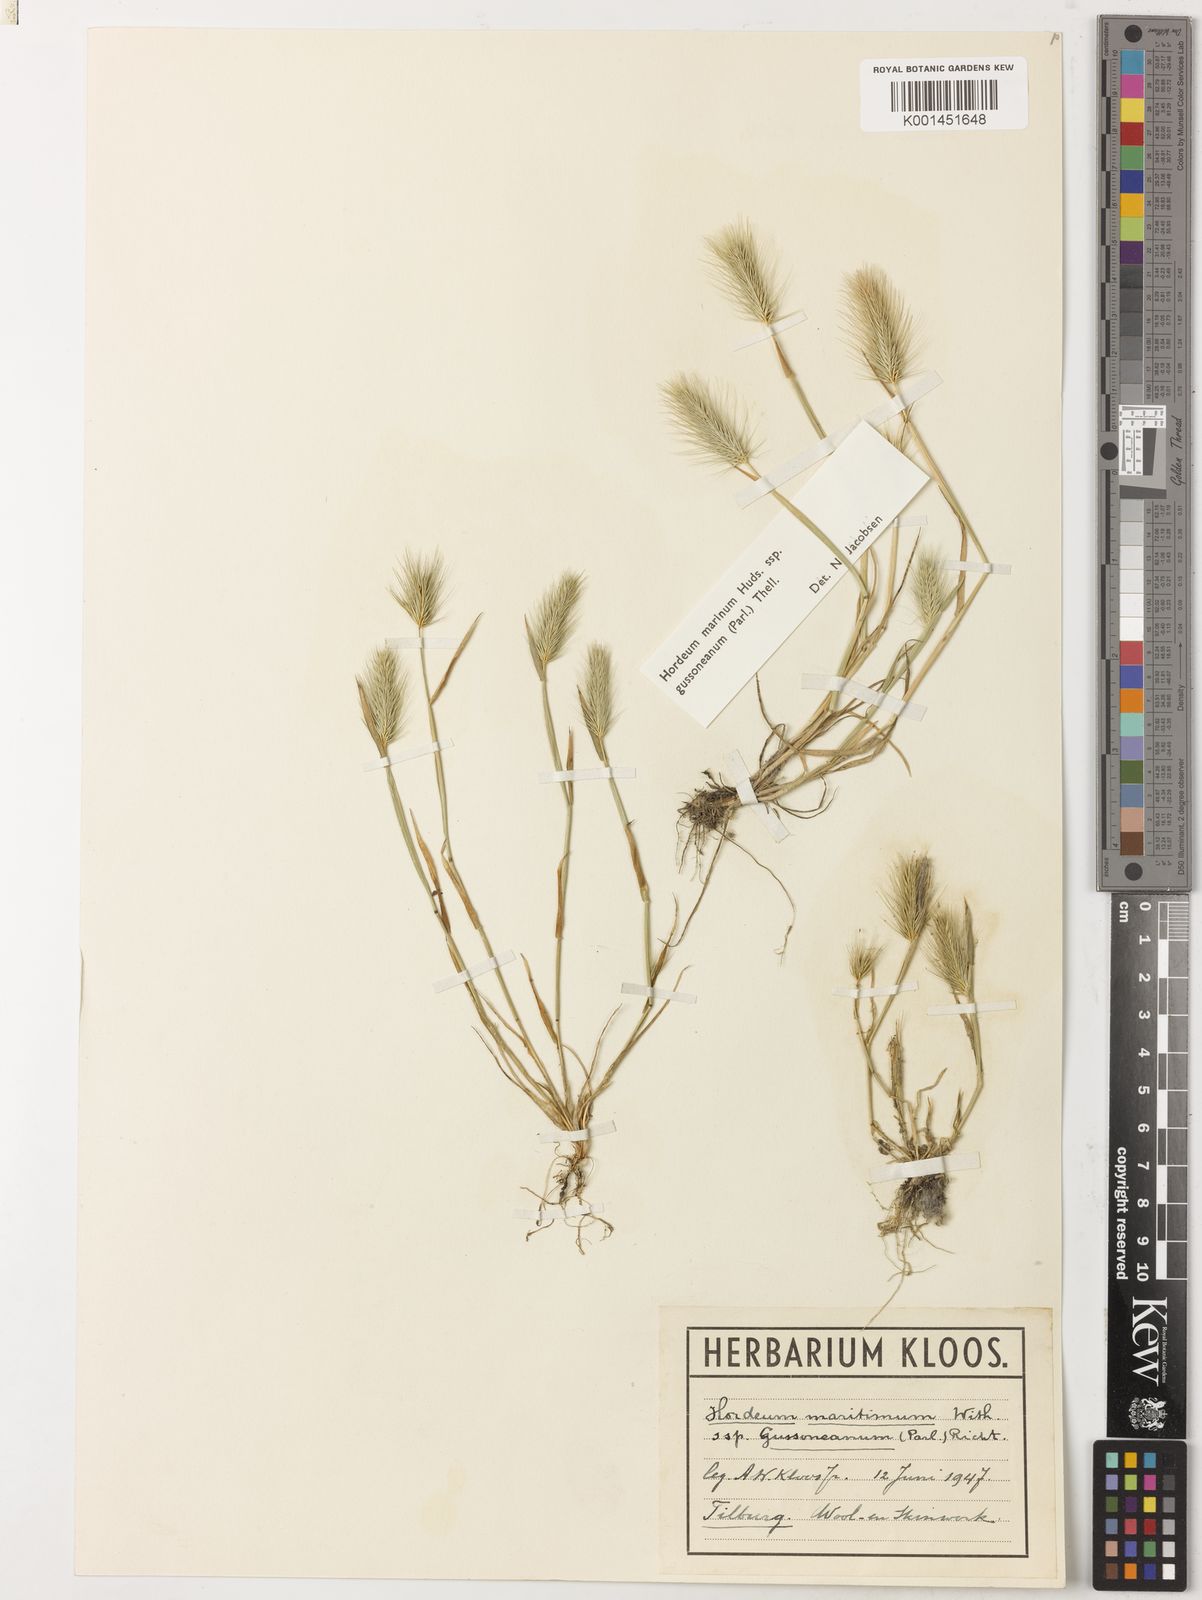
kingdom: Plantae
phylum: Tracheophyta
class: Liliopsida
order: Poales
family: Poaceae
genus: Hordeum
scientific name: Hordeum marinum
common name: Sea barley
